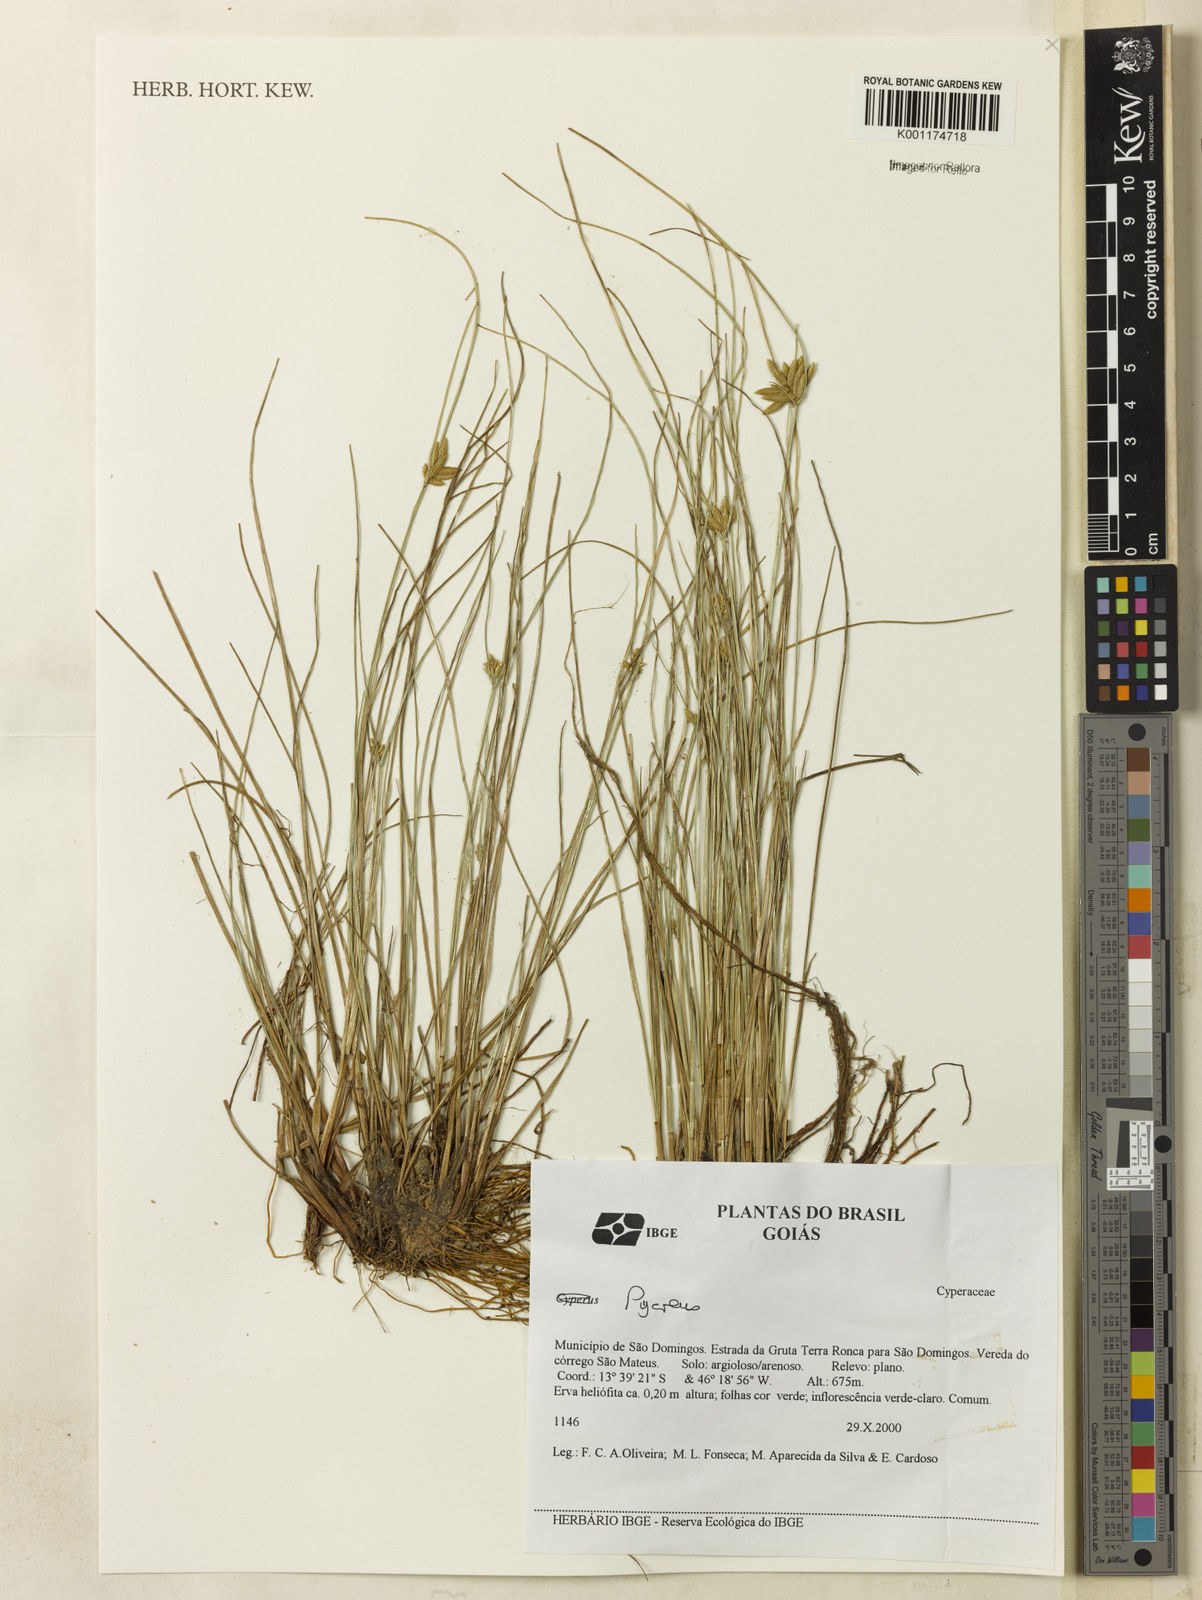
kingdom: Plantae
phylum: Tracheophyta
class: Liliopsida
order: Poales
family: Cyperaceae
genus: Cyperus
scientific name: Cyperus lanceolatus
